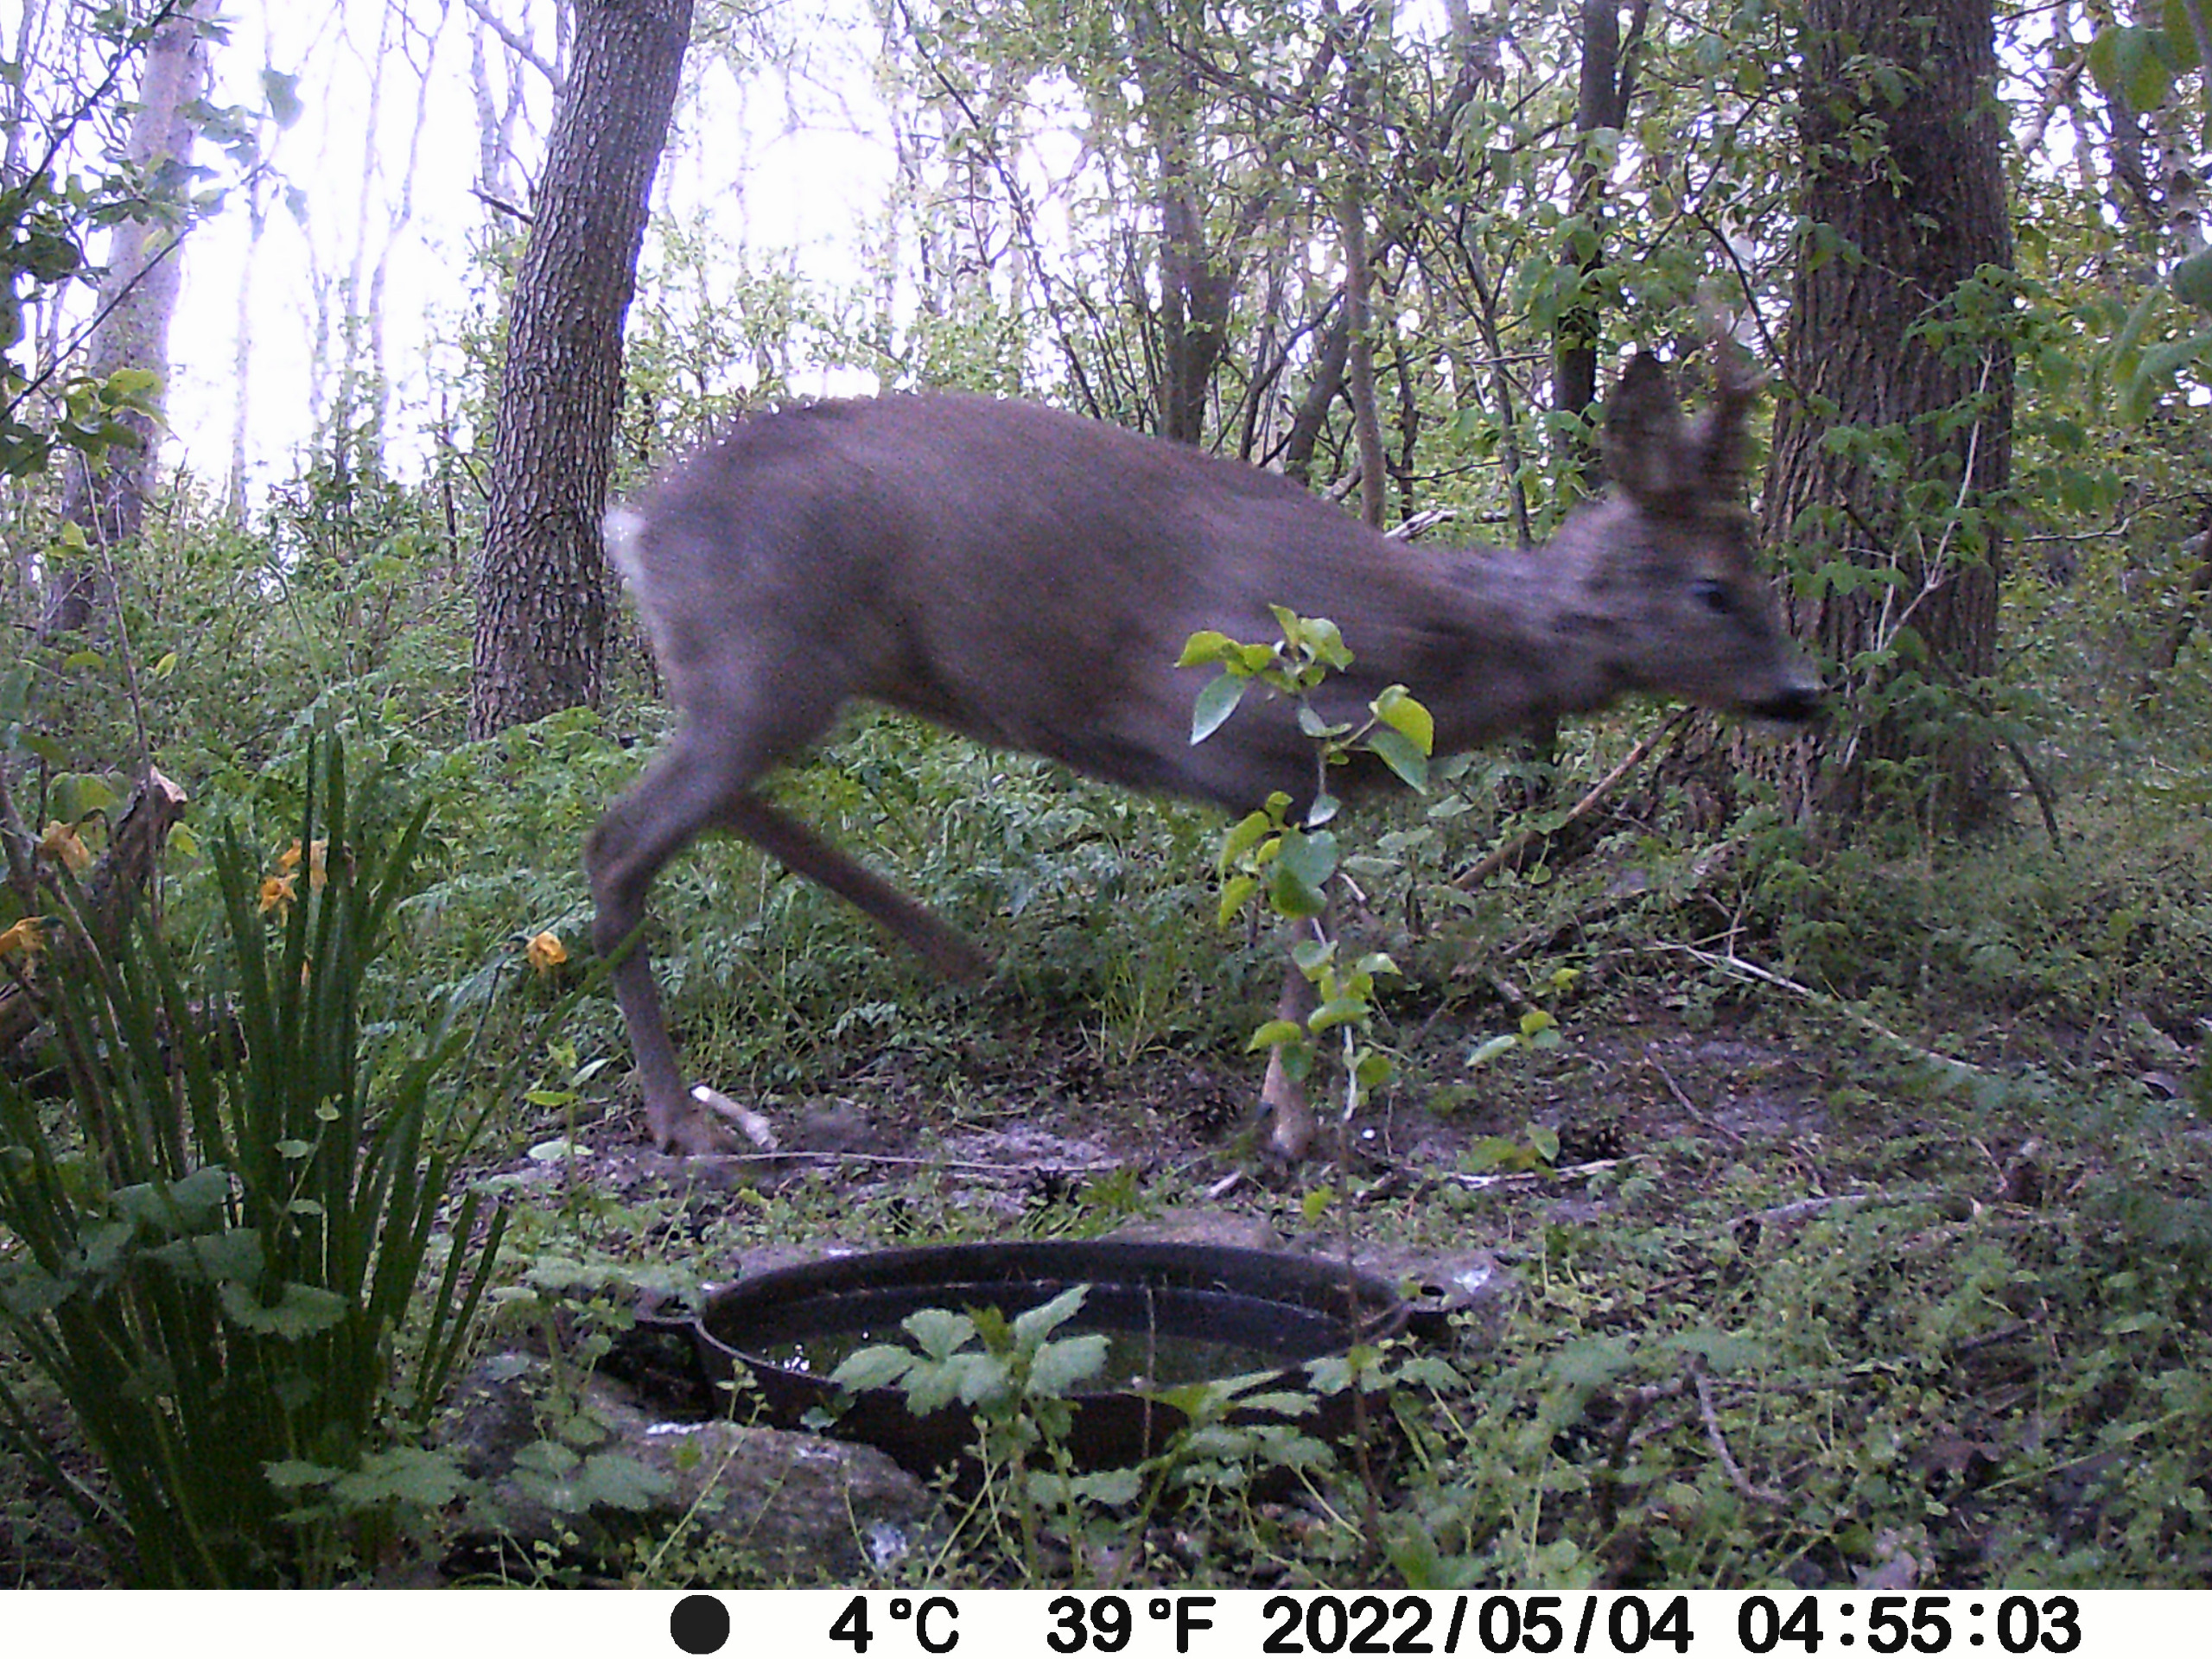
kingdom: Animalia
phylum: Chordata
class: Mammalia
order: Artiodactyla
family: Cervidae
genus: Capreolus
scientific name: Capreolus capreolus
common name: Rådyr
